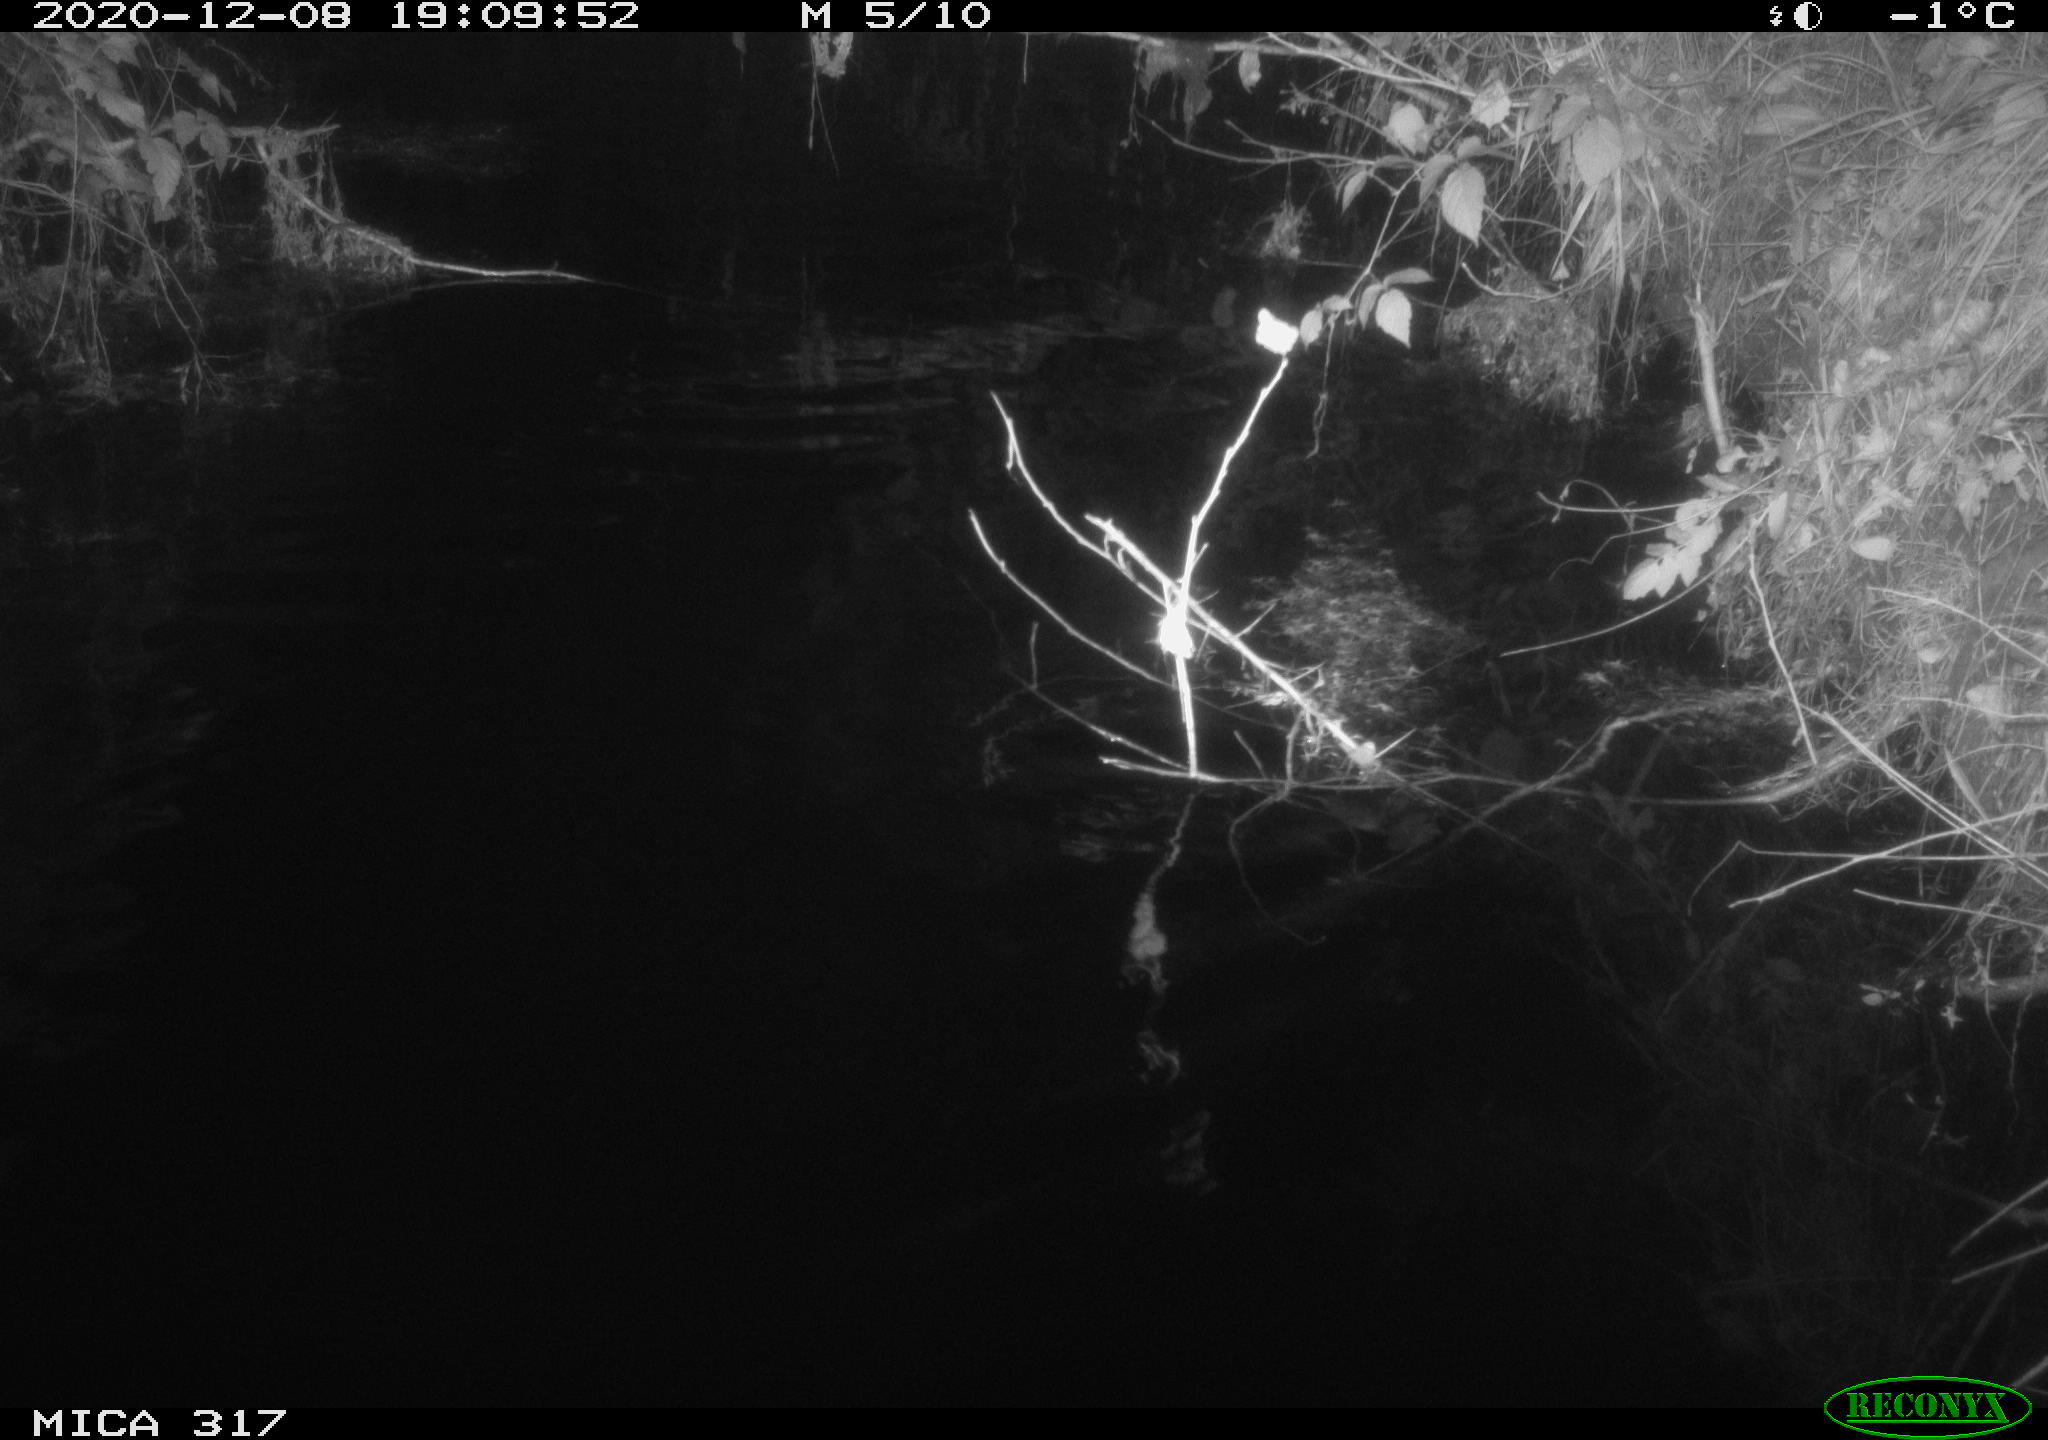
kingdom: Animalia
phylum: Chordata
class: Mammalia
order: Rodentia
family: Muridae
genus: Rattus
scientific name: Rattus norvegicus
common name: Brown rat
